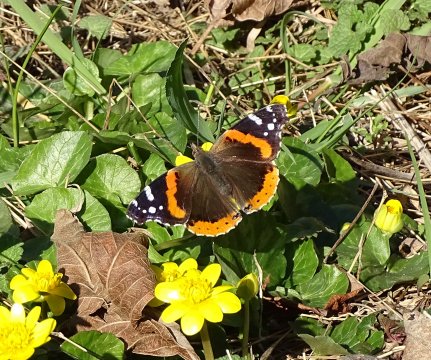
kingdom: Animalia
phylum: Arthropoda
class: Insecta
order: Lepidoptera
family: Nymphalidae
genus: Vanessa
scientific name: Vanessa atalanta
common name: Red Admiral
